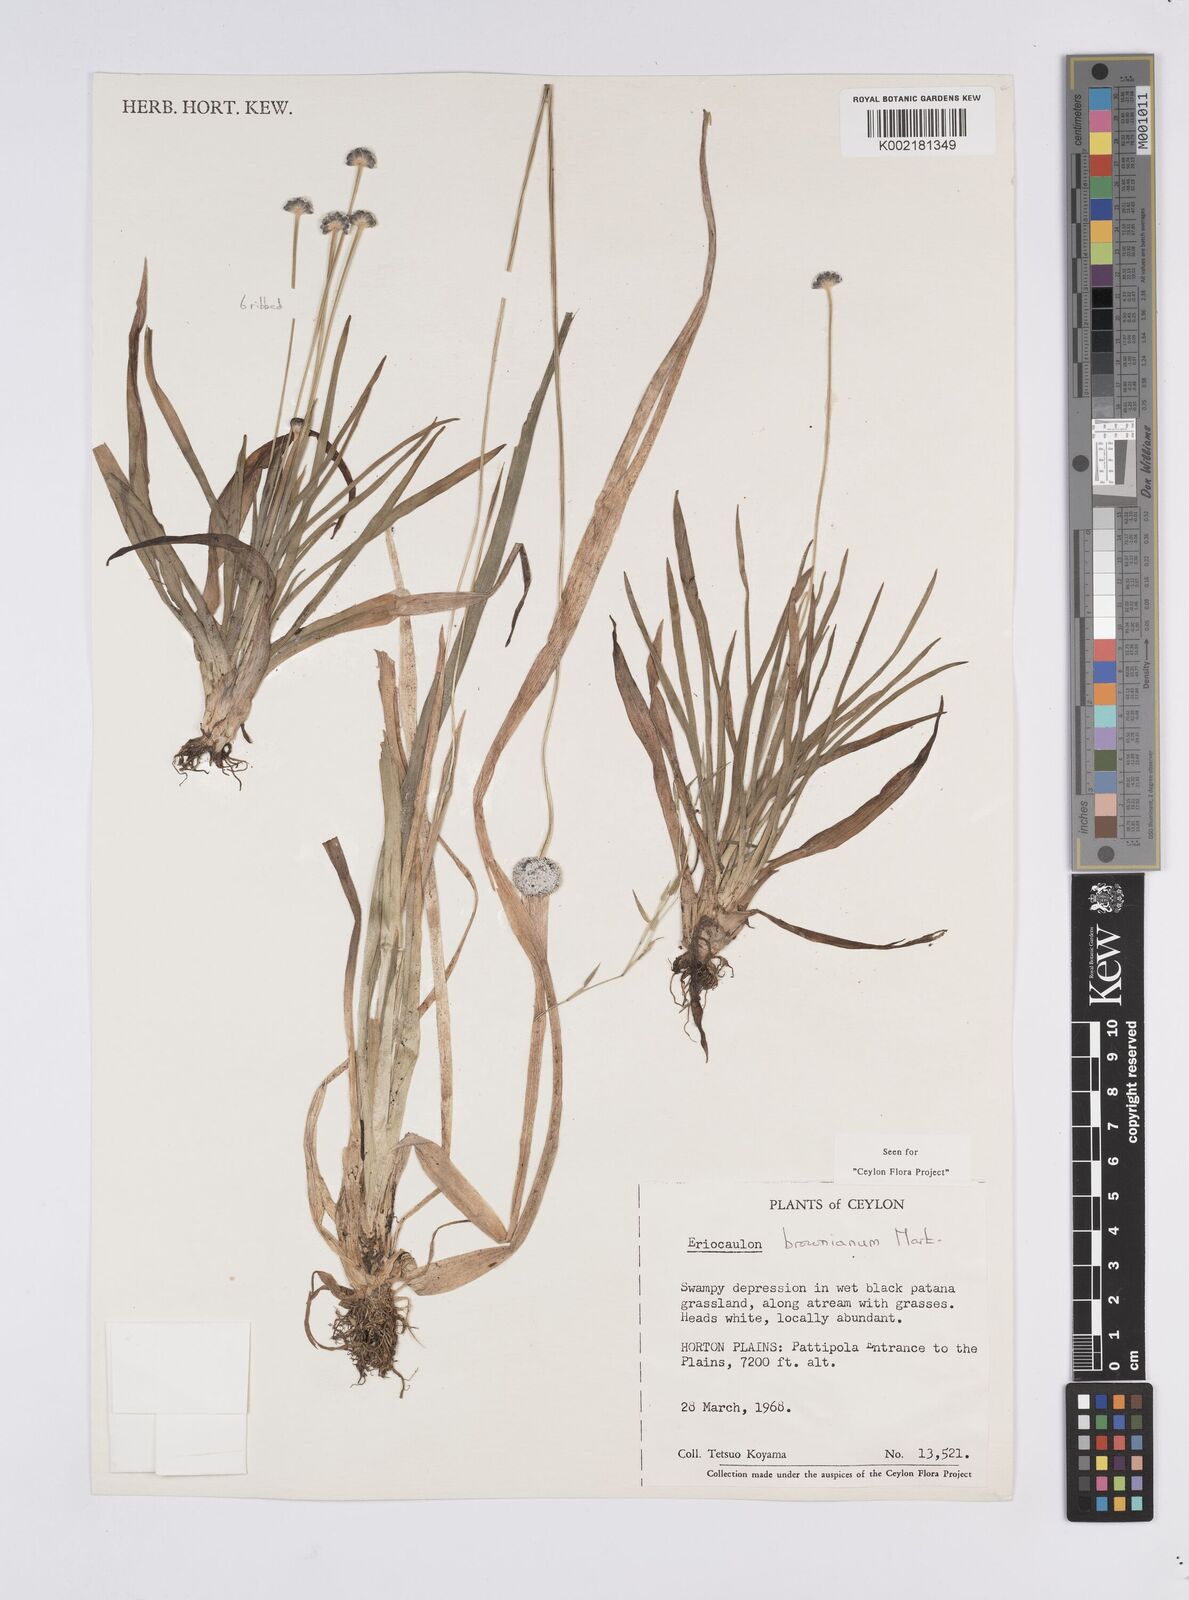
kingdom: Plantae
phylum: Tracheophyta
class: Liliopsida
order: Poales
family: Eriocaulaceae
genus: Eriocaulon
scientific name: Eriocaulon brownianum
